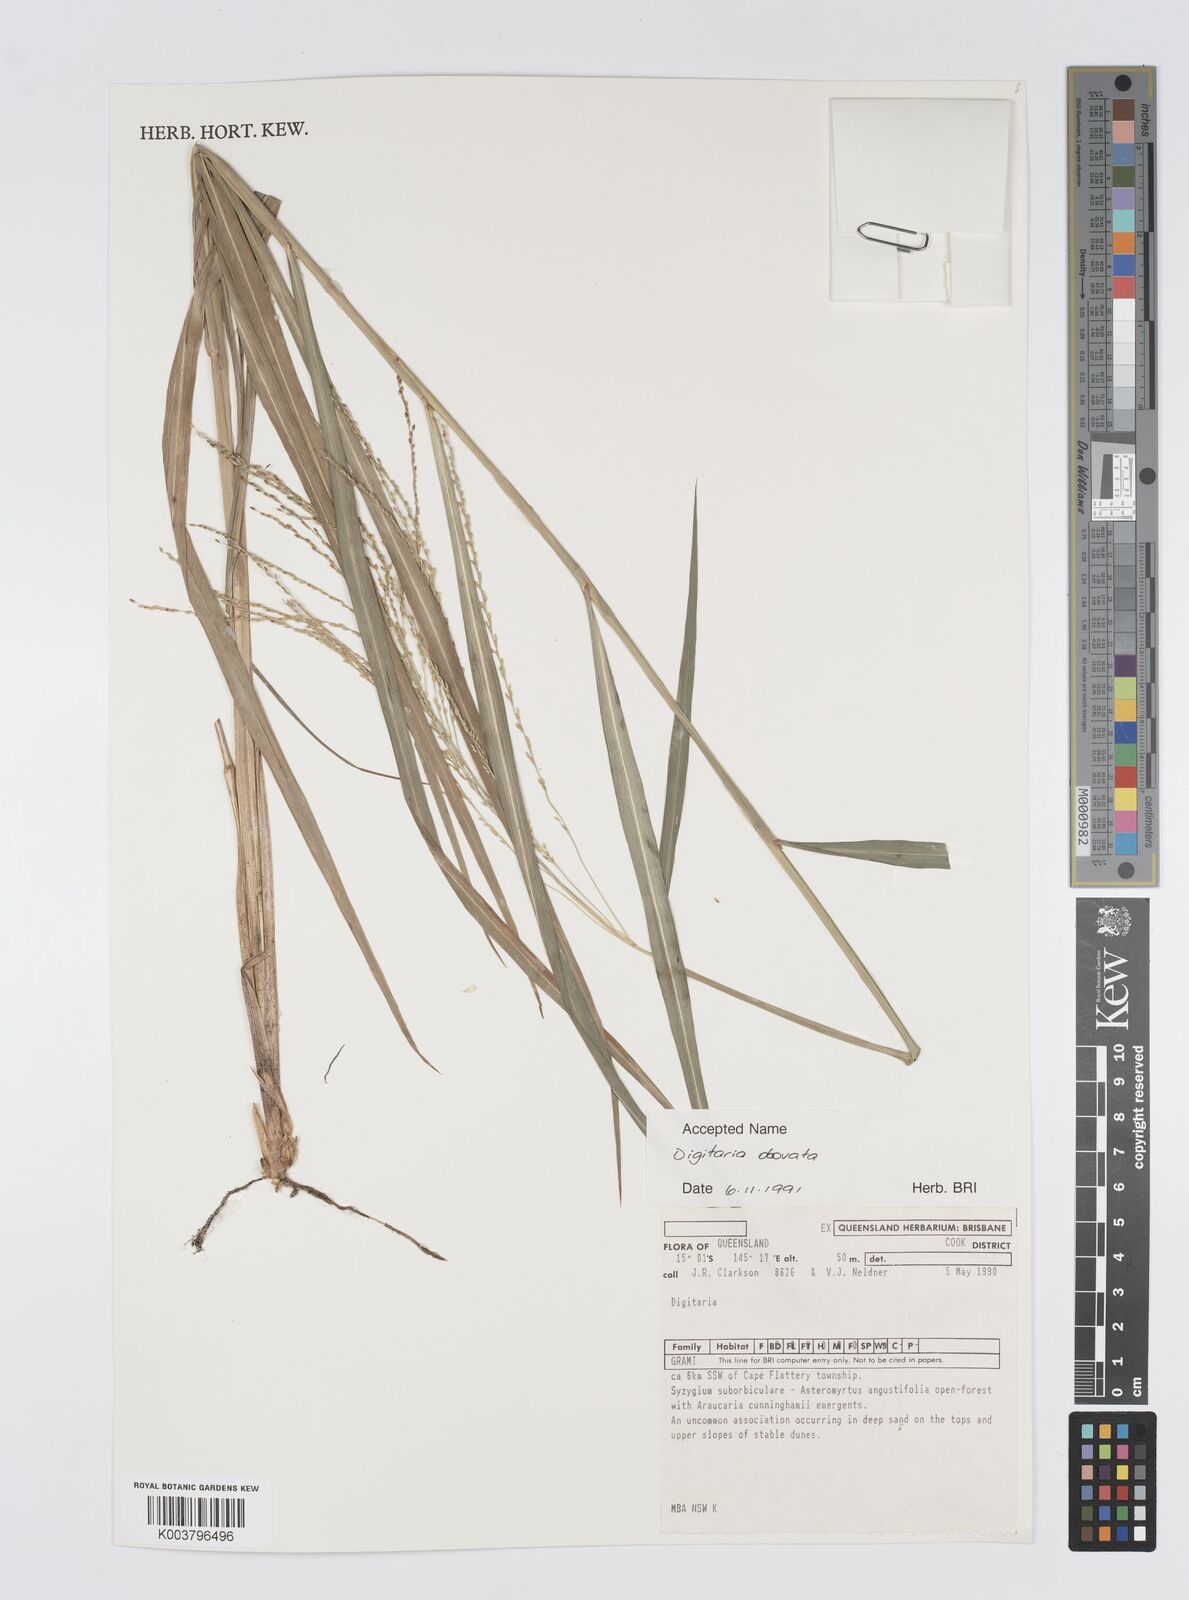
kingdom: Plantae
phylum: Tracheophyta
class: Liliopsida
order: Poales
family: Poaceae
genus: Digitaria
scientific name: Digitaria orbata
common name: Crabgrass
